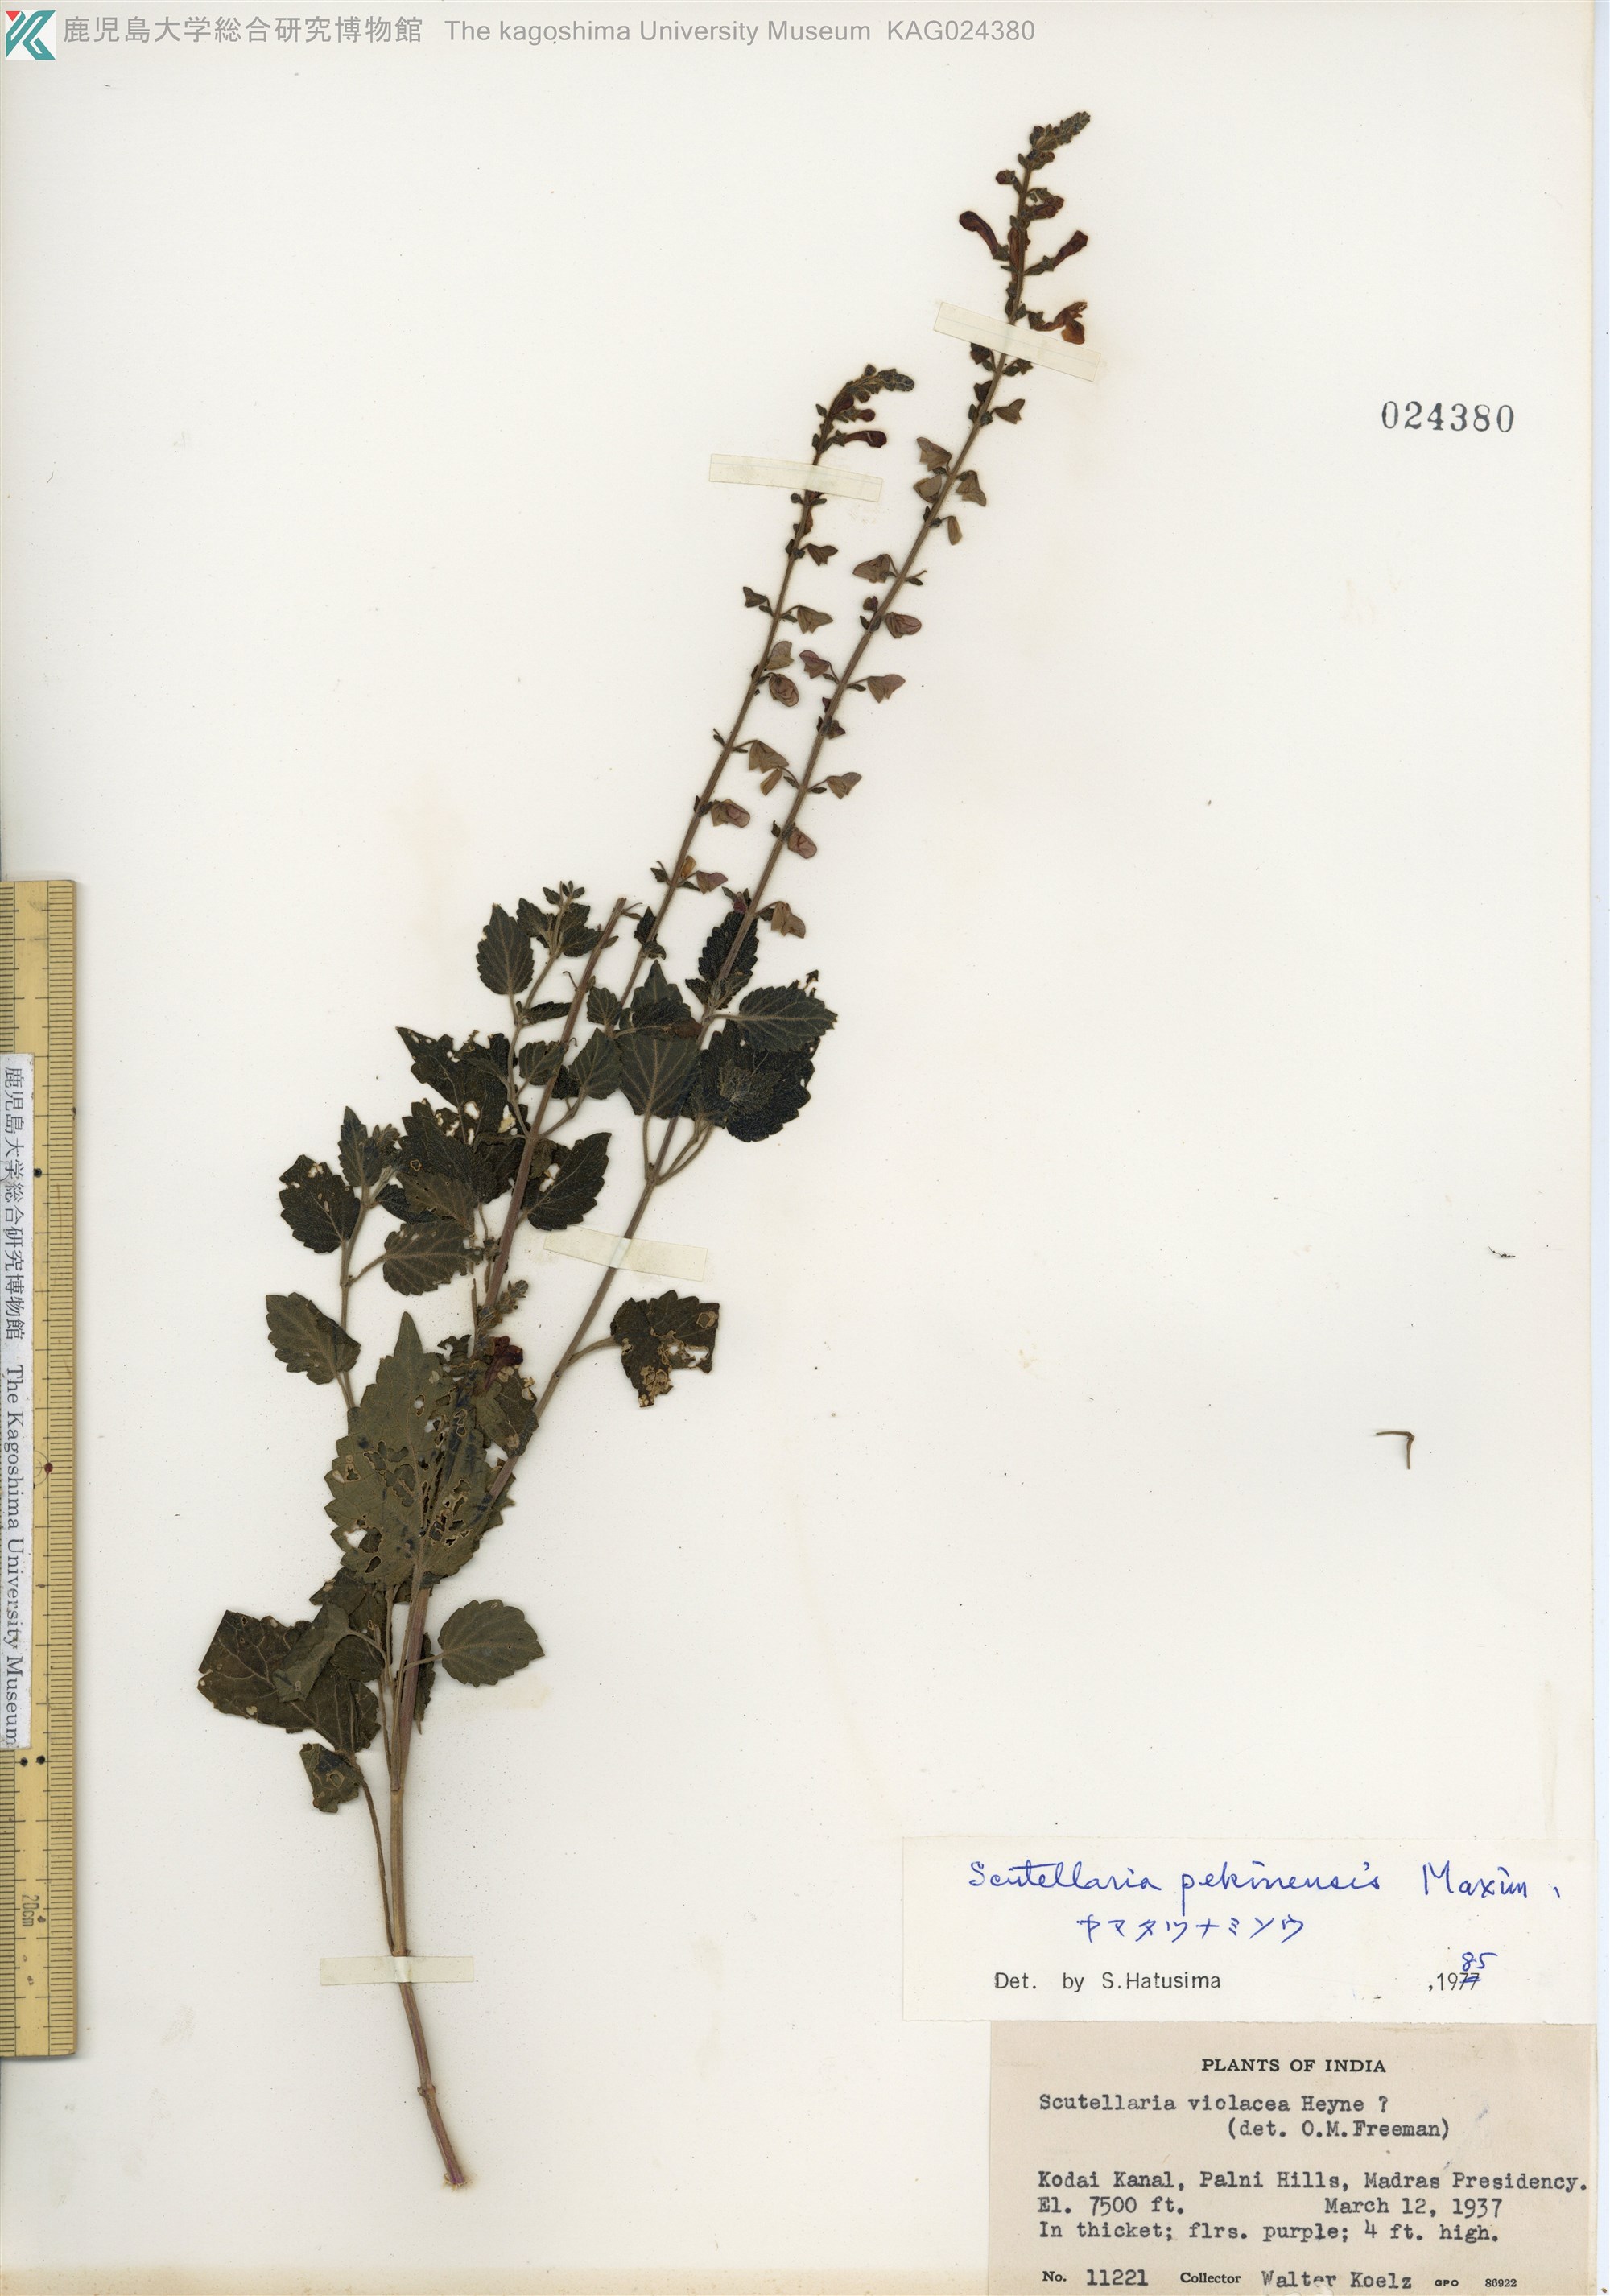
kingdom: Plantae
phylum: Tracheophyta
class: Magnoliopsida
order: Lamiales
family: Lamiaceae
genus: Scutellaria
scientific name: Scutellaria pekinensis
